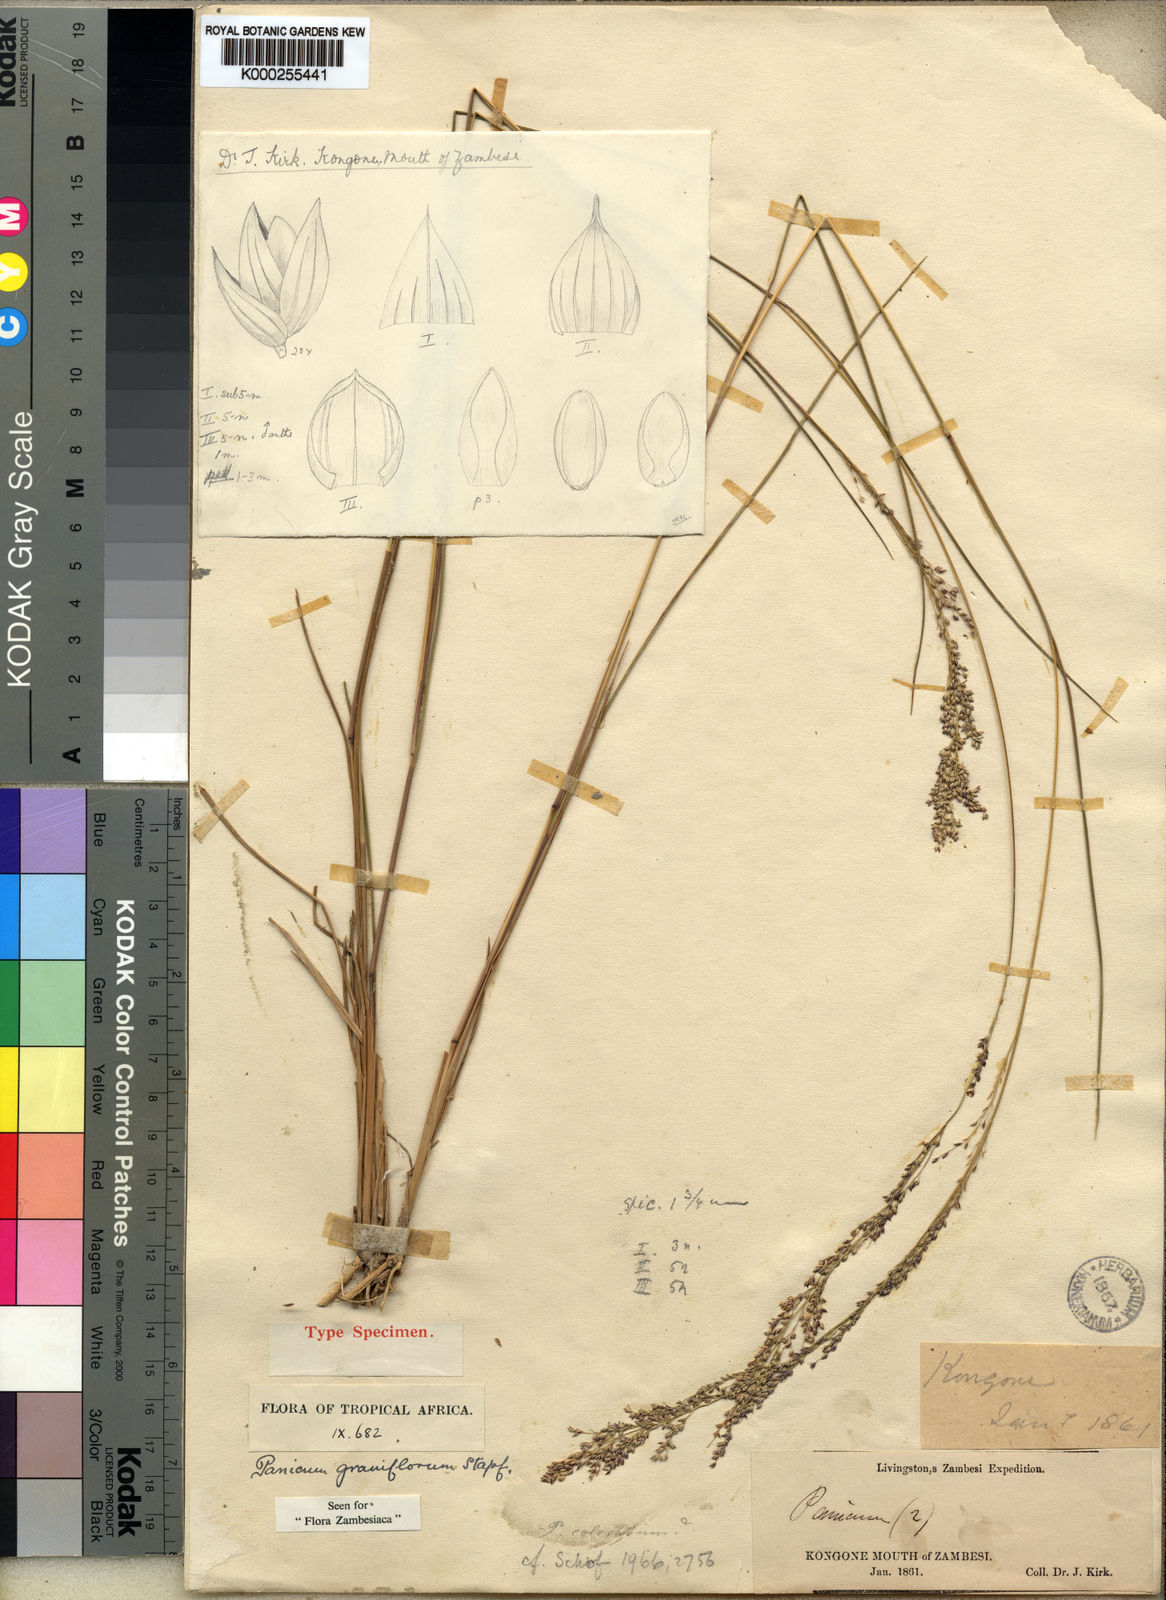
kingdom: Plantae
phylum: Tracheophyta
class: Liliopsida
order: Poales
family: Poaceae
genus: Panicum
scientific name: Panicum graniflorum
